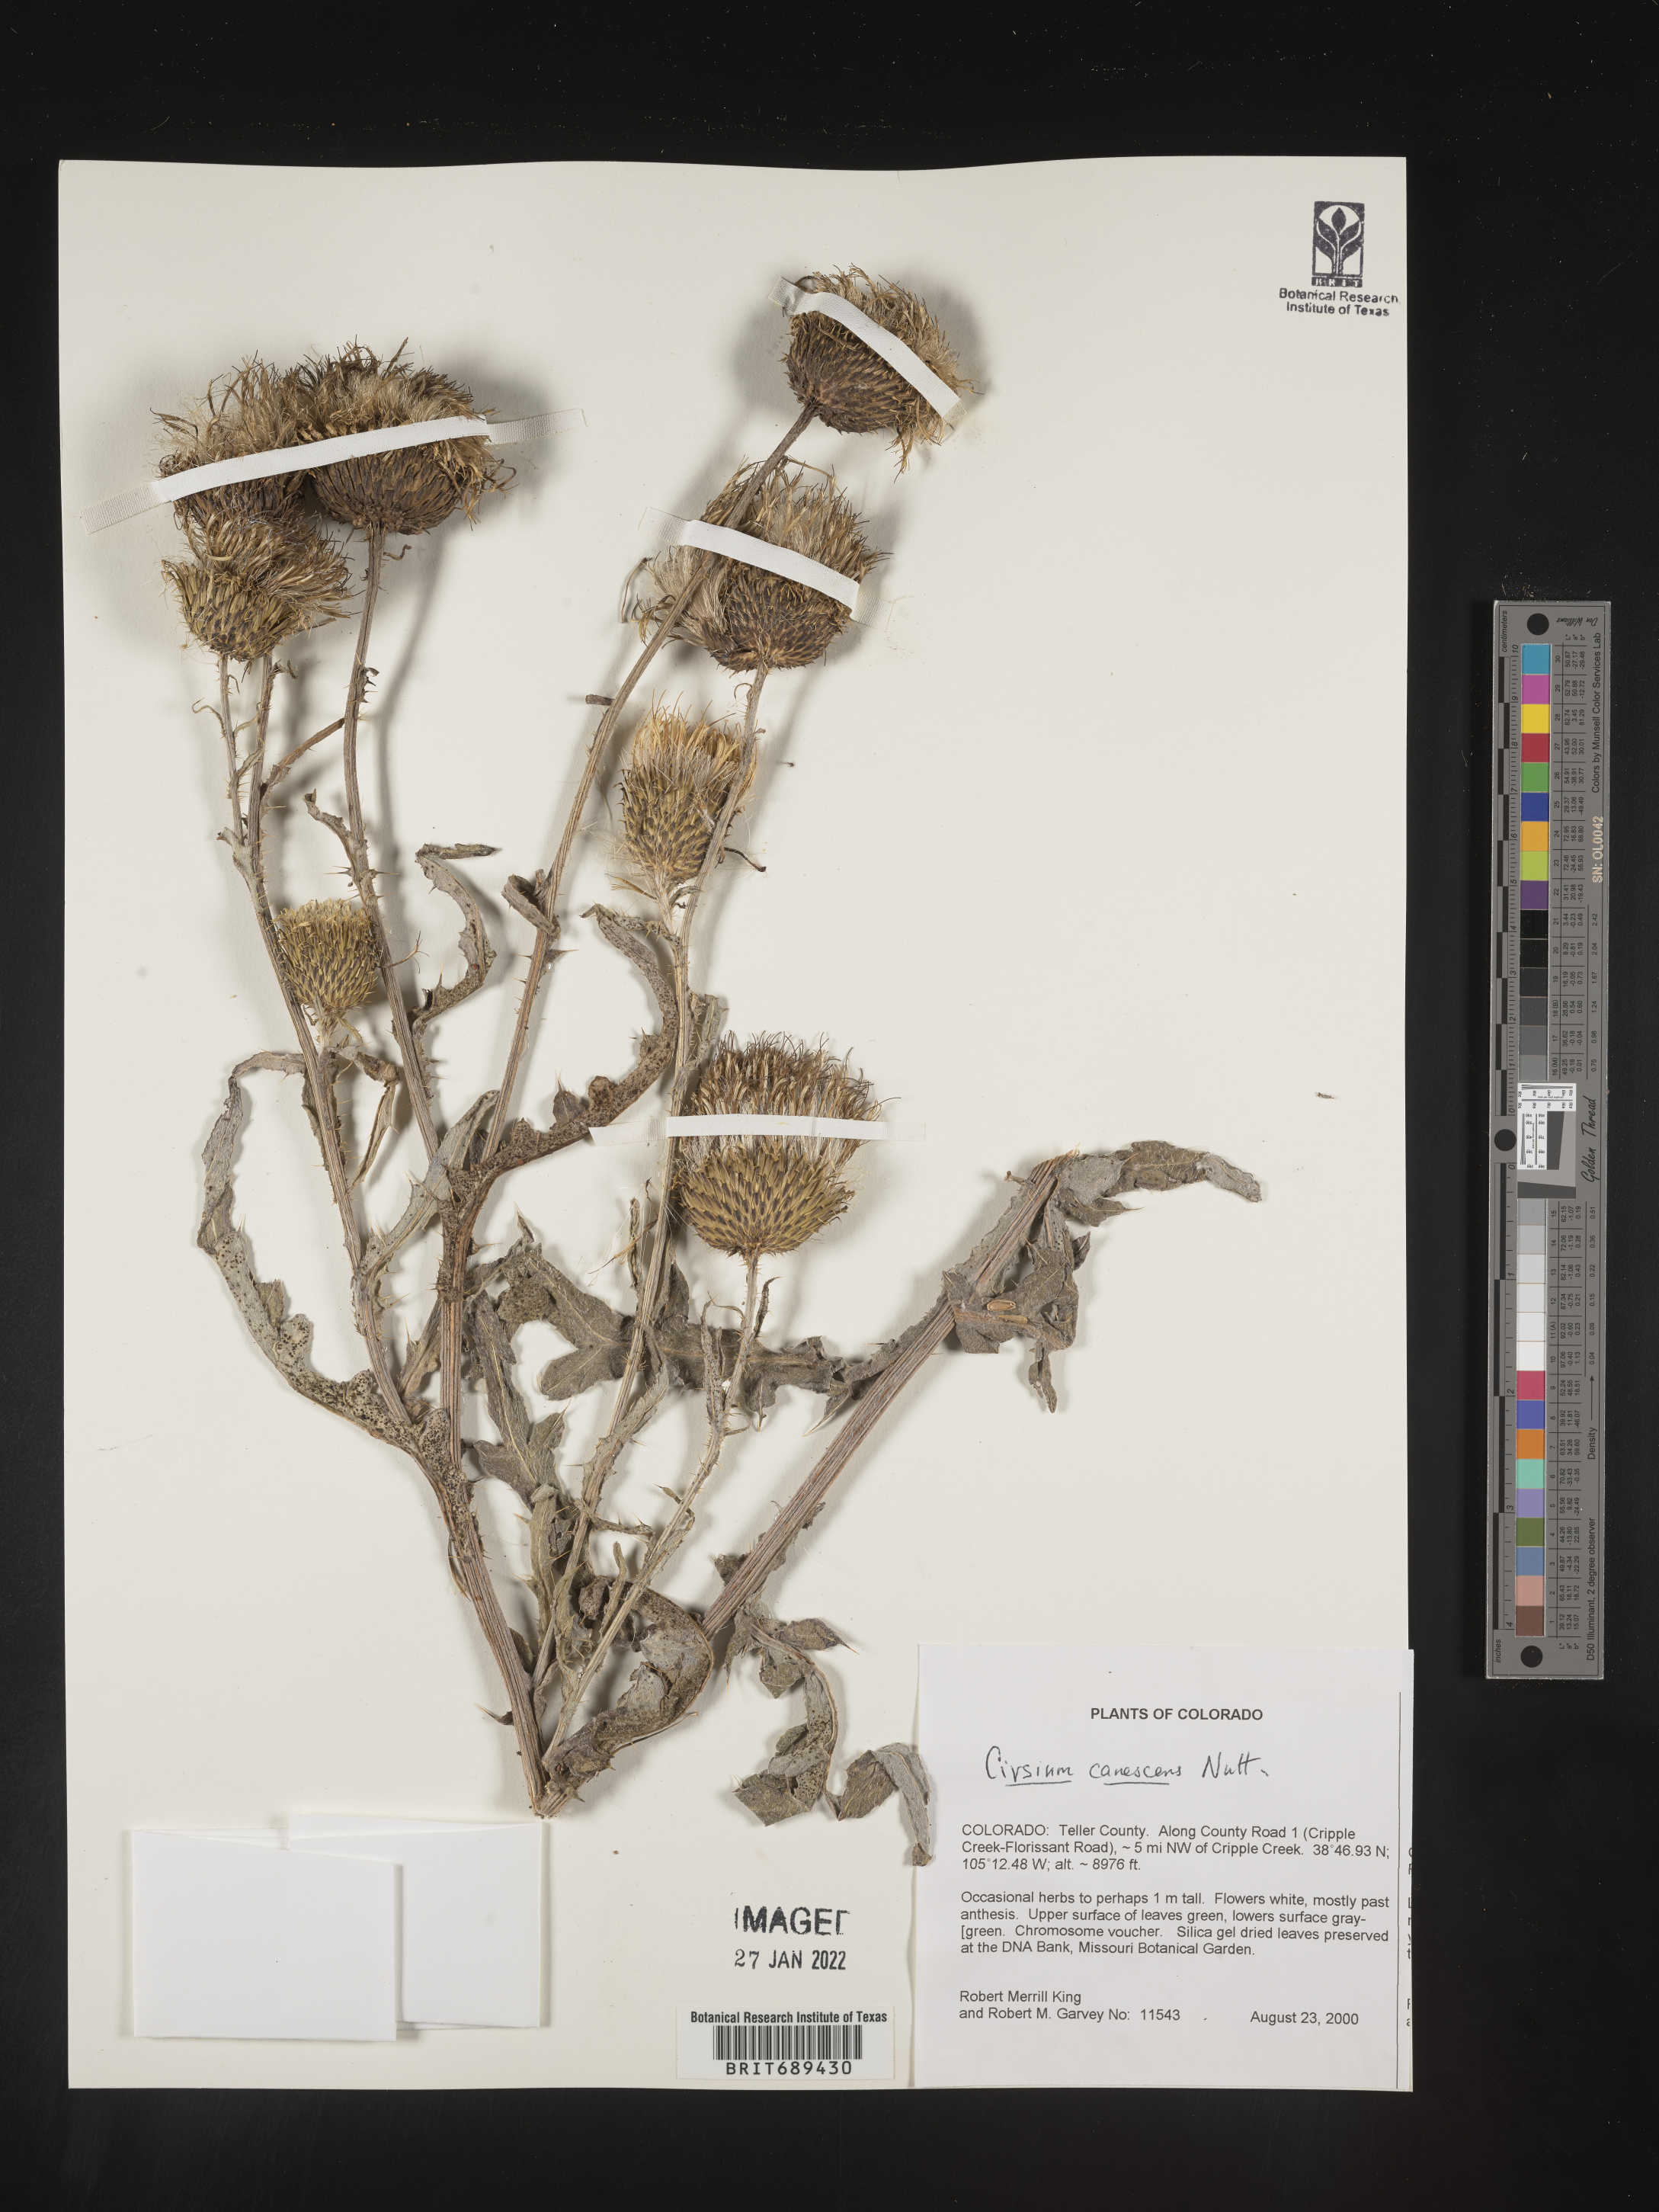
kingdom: Plantae
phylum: Tracheophyta
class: Magnoliopsida
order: Asterales
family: Asteraceae
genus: Cirsium
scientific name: Cirsium canescens
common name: Prairie thistle
